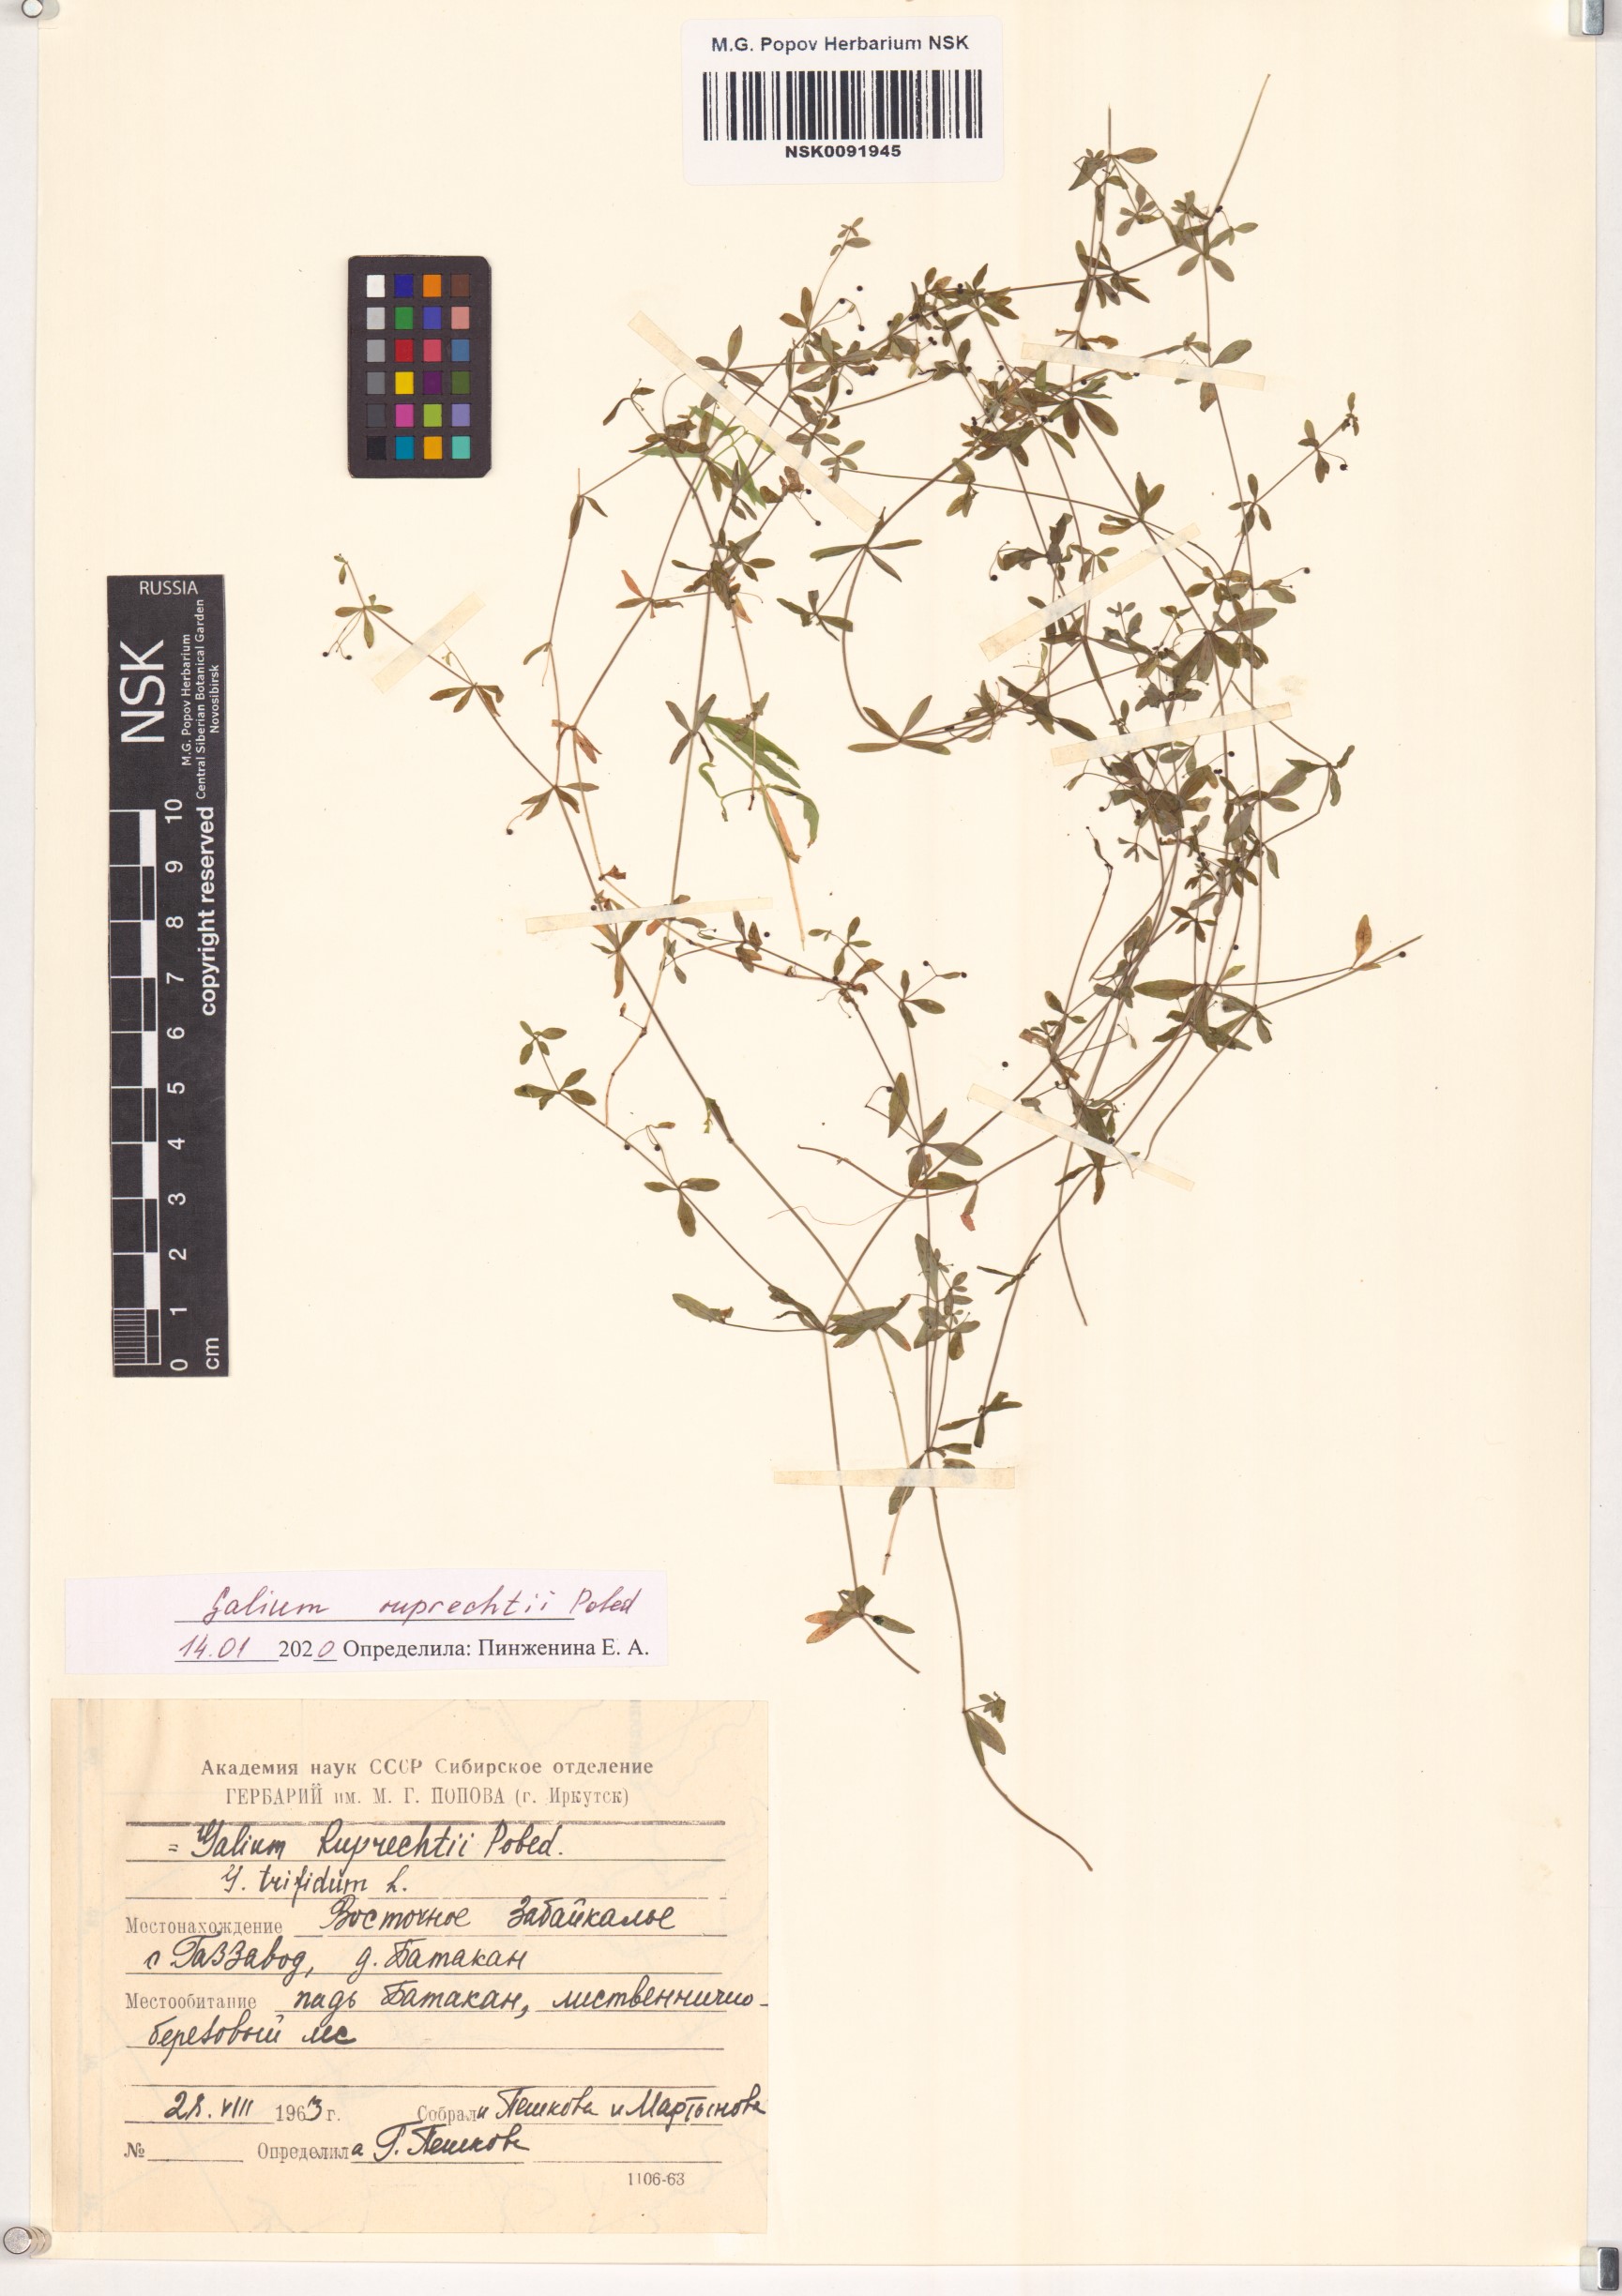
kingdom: Plantae
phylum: Tracheophyta
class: Magnoliopsida
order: Gentianales
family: Rubiaceae
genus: Galium
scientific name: Galium trifidum
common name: Small bedstraw
